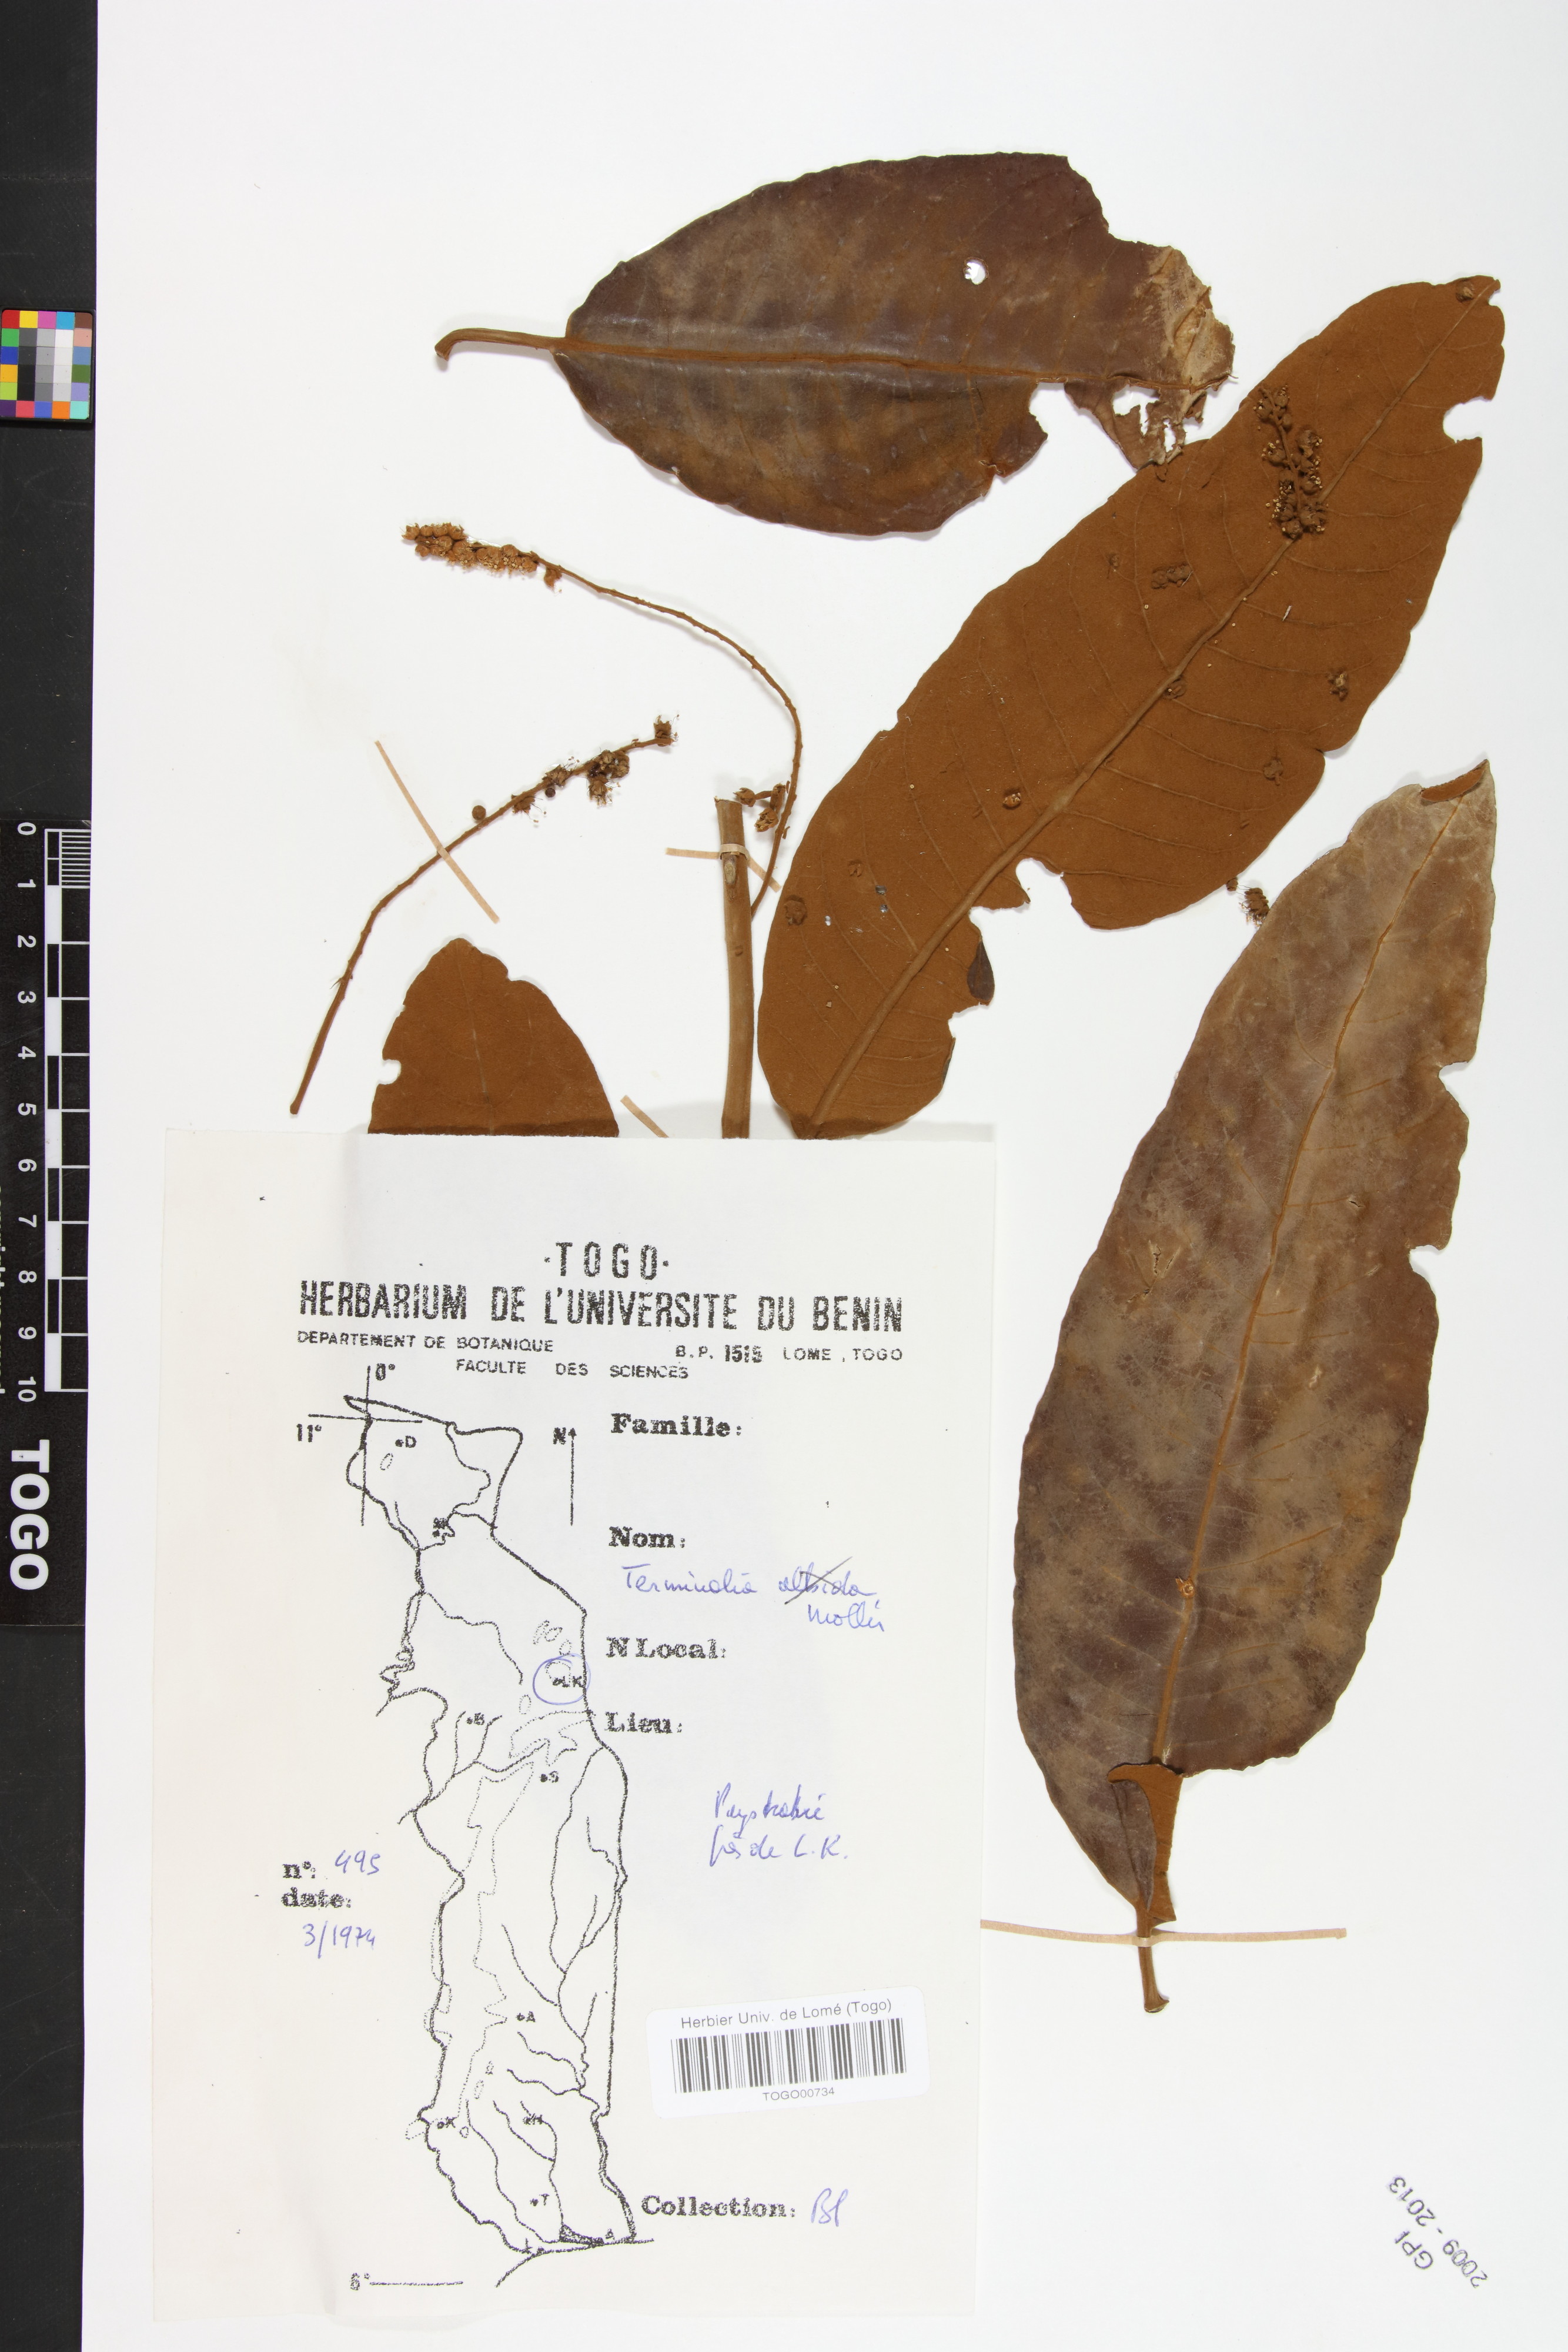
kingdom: Plantae
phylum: Tracheophyta
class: Magnoliopsida
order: Myrtales
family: Combretaceae
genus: Terminalia
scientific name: Terminalia mollis
